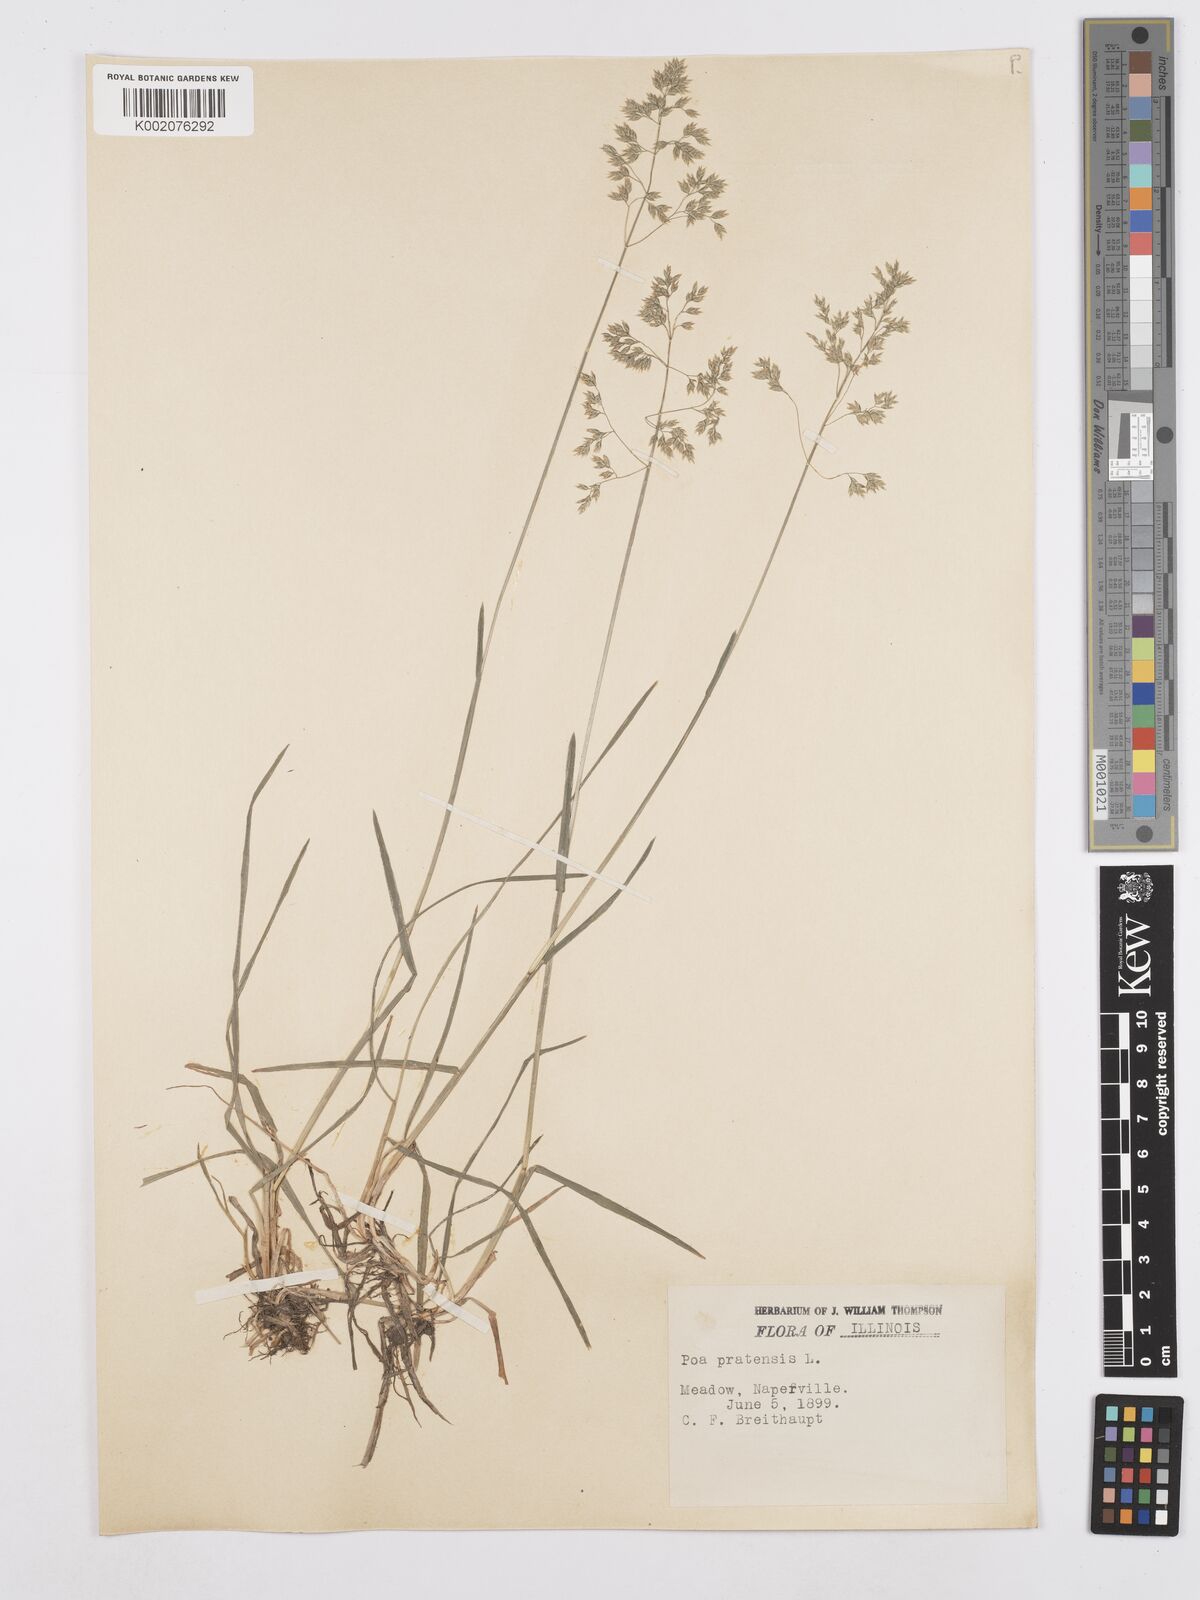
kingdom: Plantae
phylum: Tracheophyta
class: Liliopsida
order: Poales
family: Poaceae
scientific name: Poaceae
